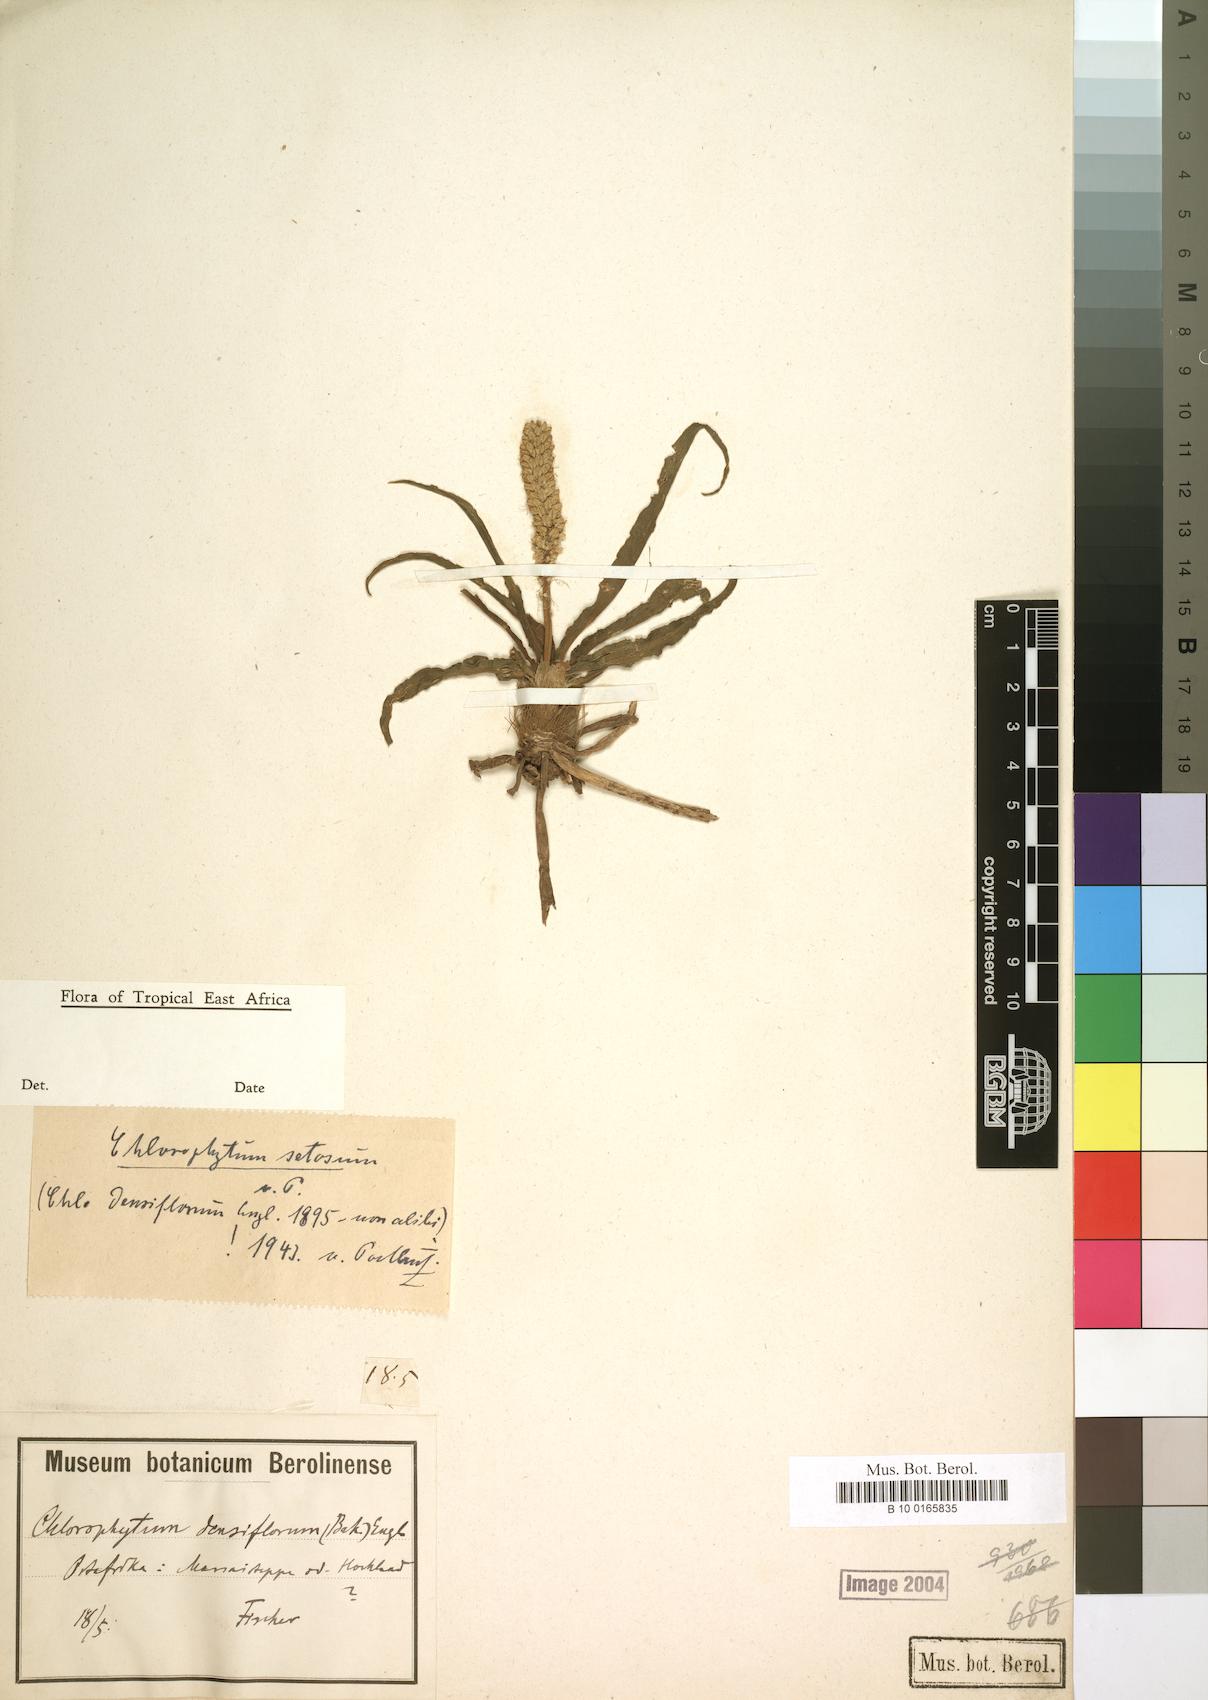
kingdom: Plantae
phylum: Tracheophyta
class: Liliopsida
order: Asparagales
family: Asparagaceae
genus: Chlorophytum
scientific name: Chlorophytum africanum
